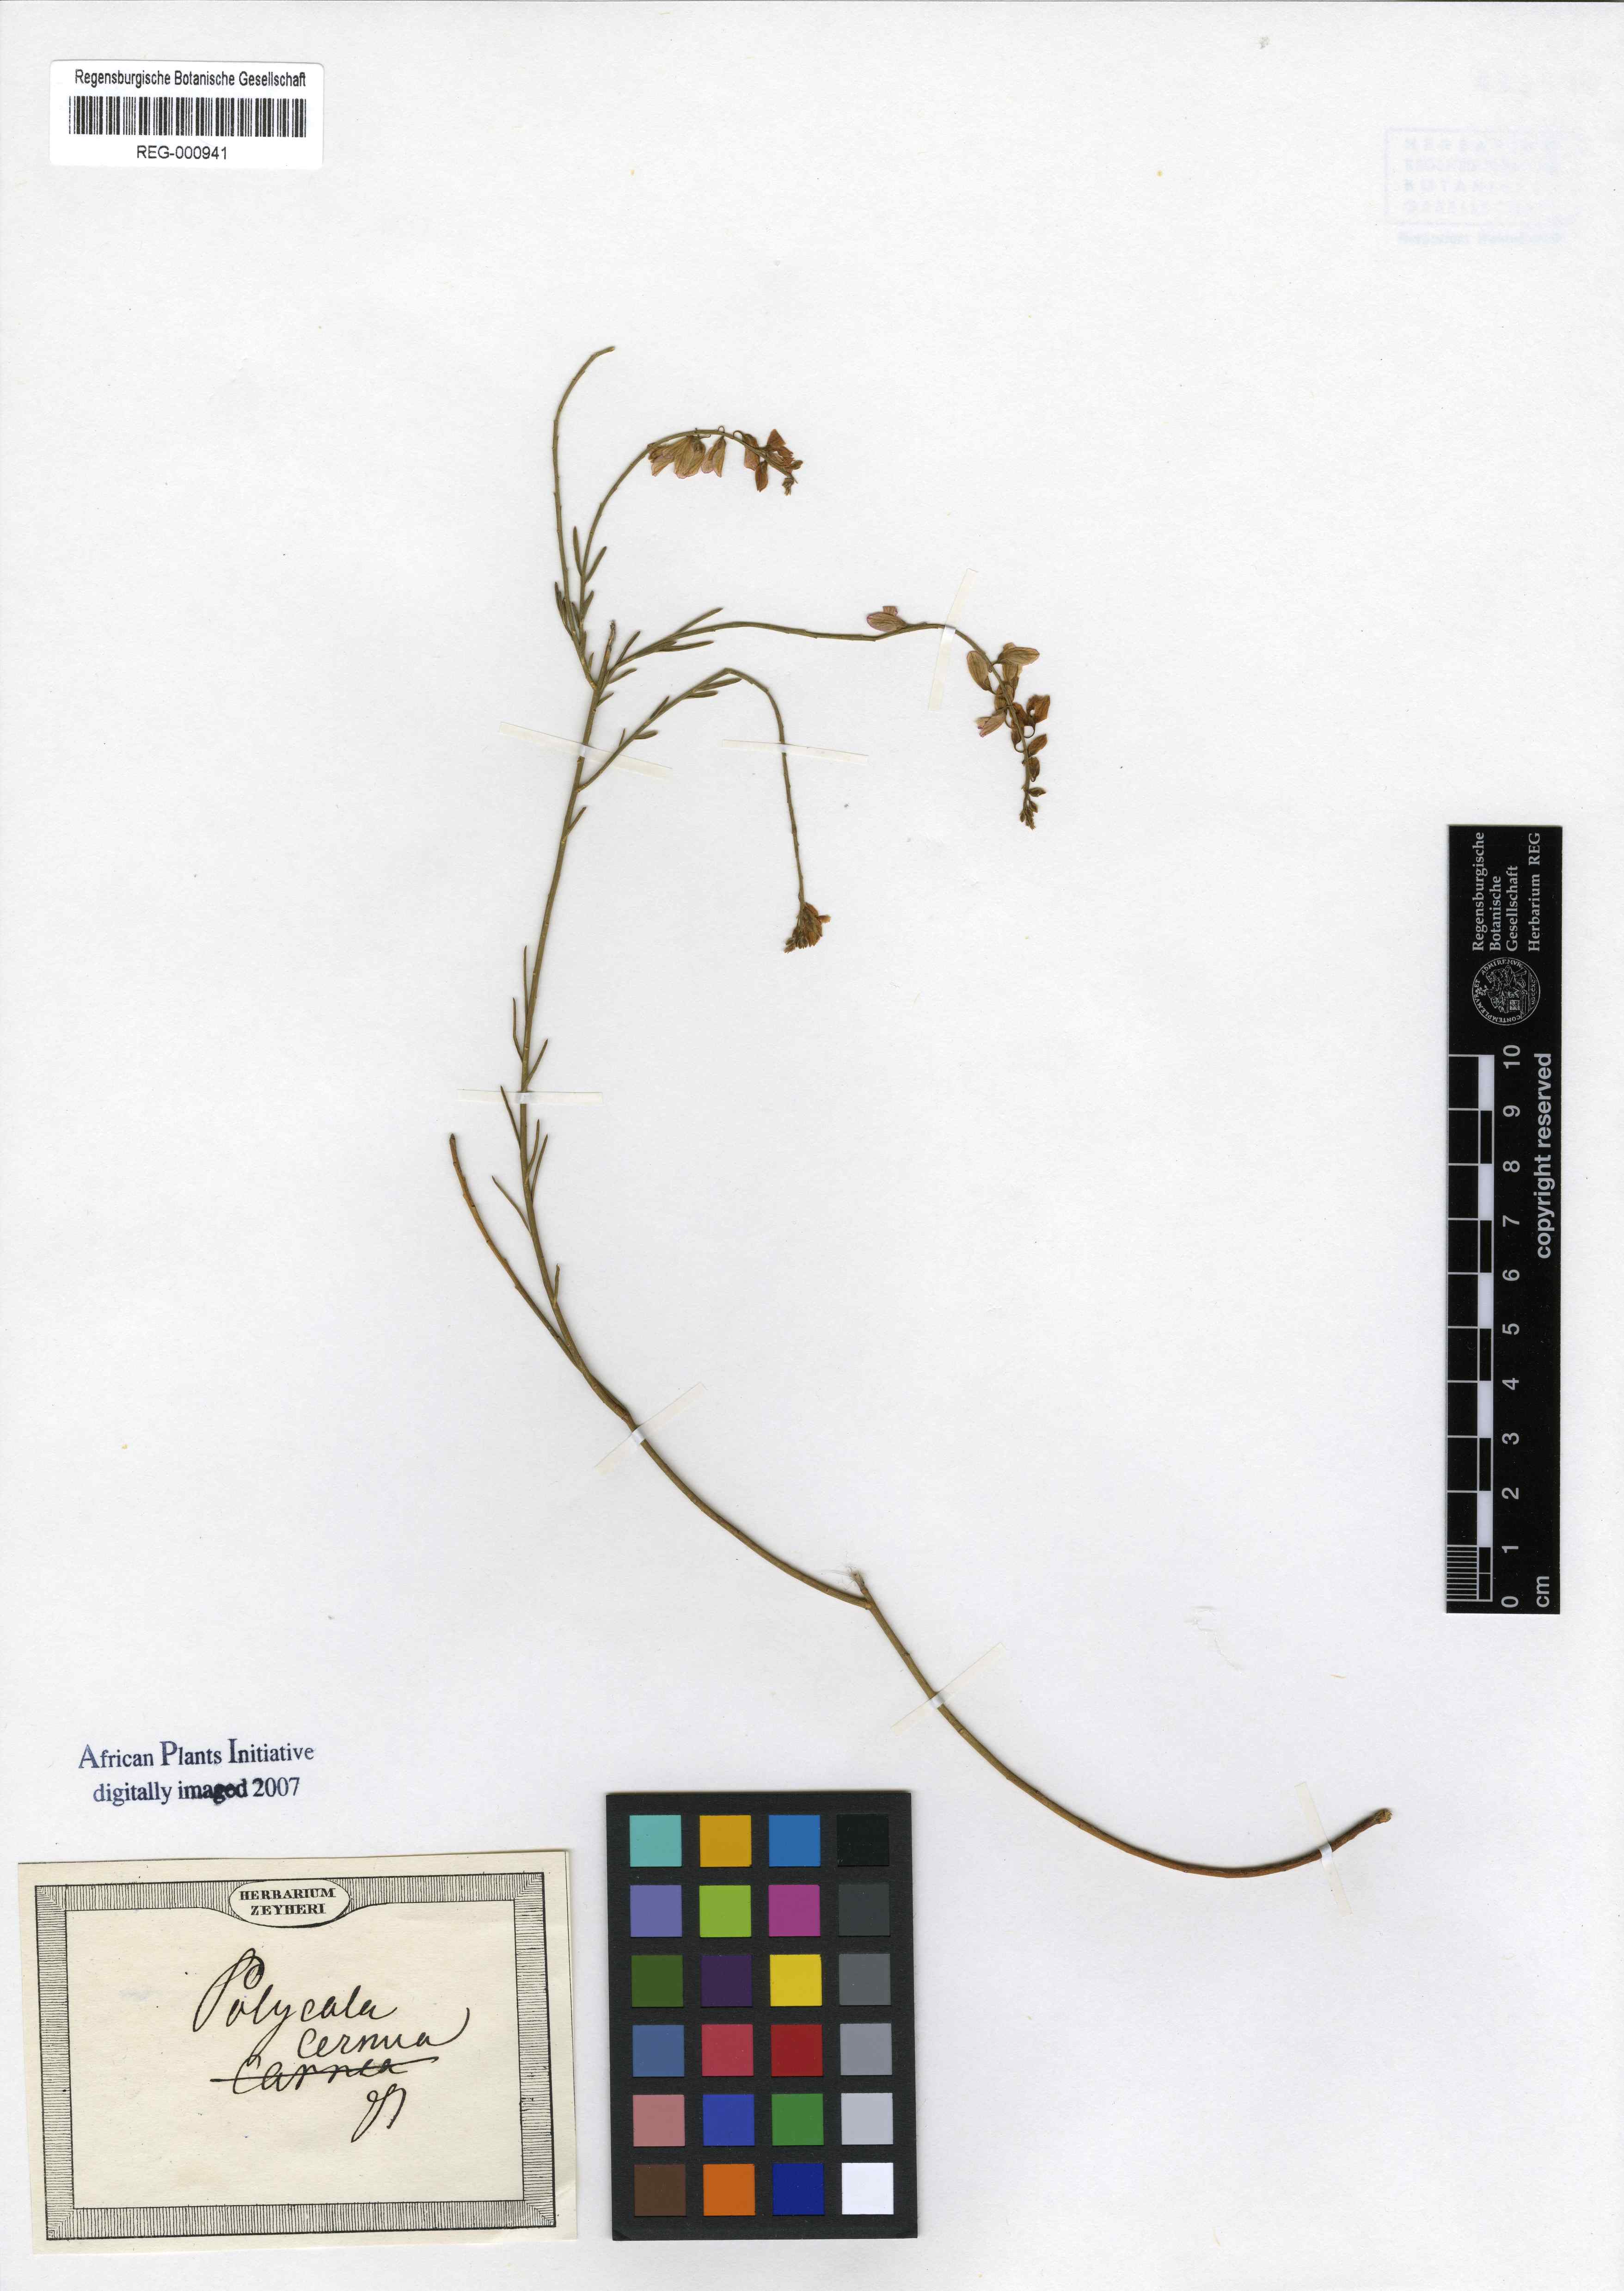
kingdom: Plantae
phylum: Tracheophyta
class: Magnoliopsida
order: Fabales
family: Polygalaceae
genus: Polygala
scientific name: Polygala virgata
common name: Milkwort
